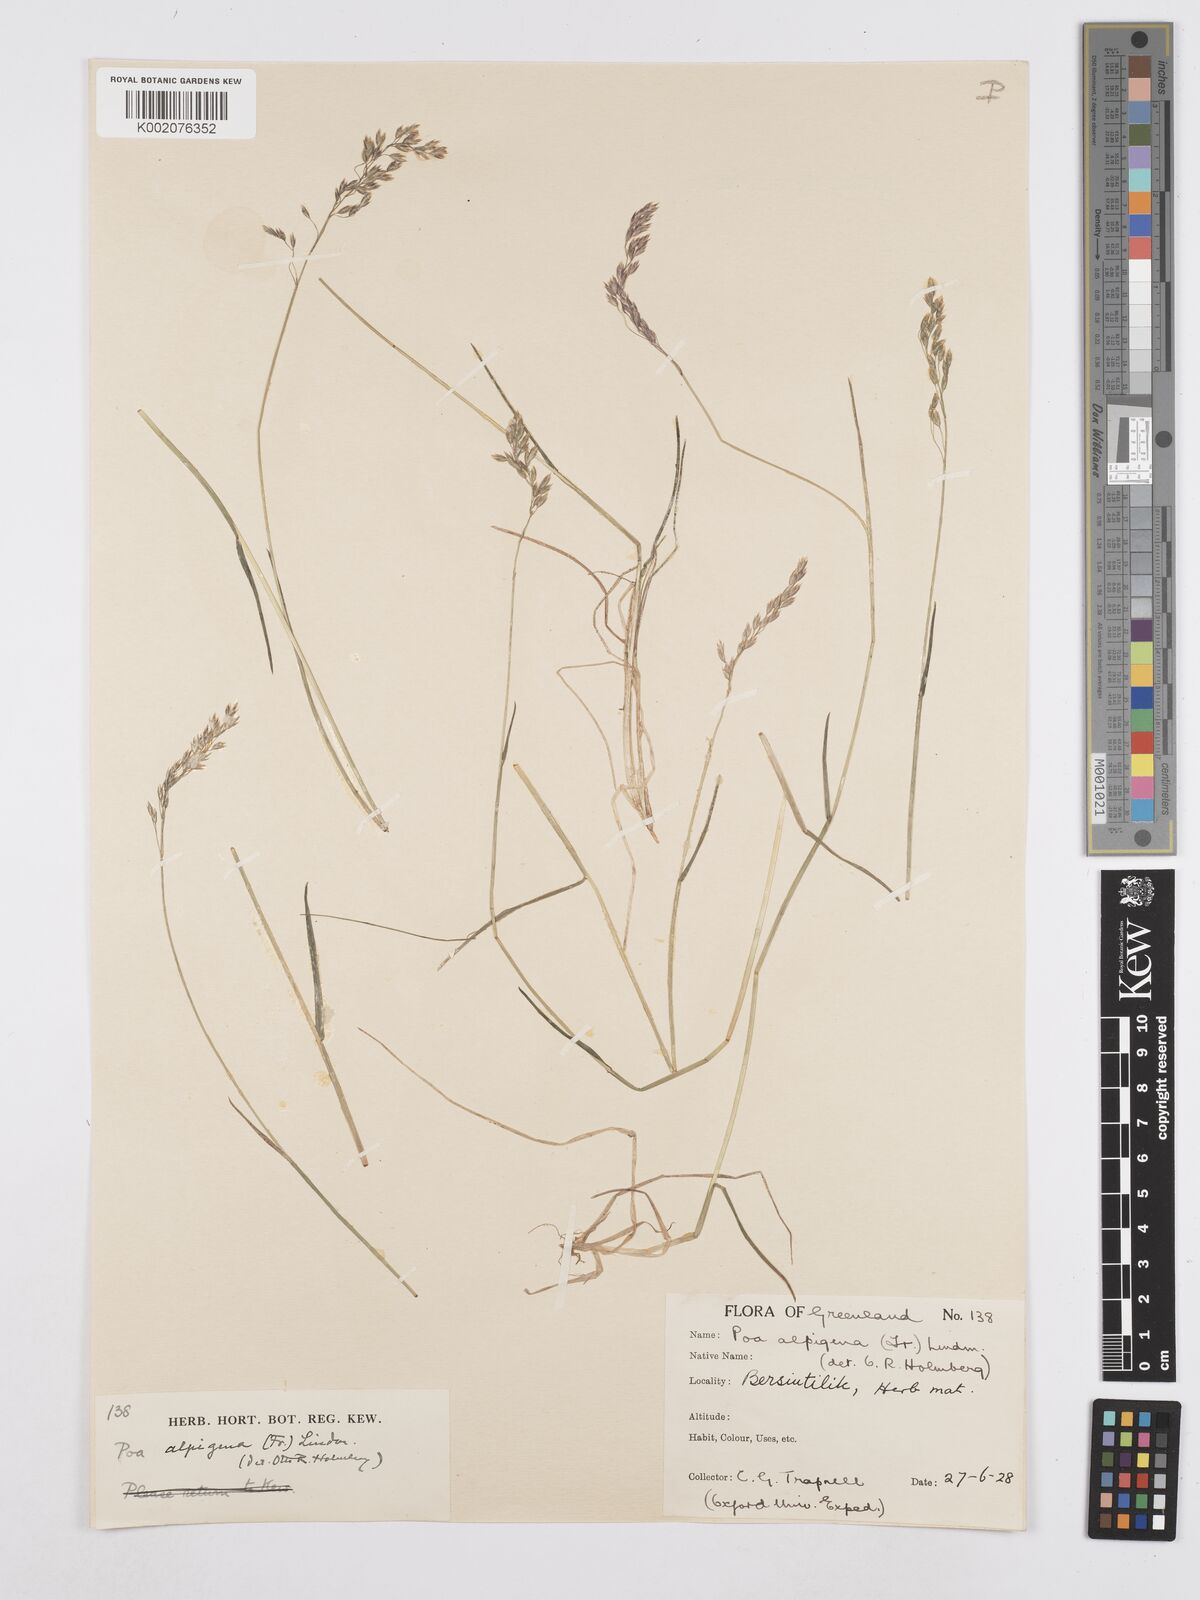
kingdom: Plantae
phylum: Tracheophyta
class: Liliopsida
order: Poales
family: Poaceae
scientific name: Poaceae
